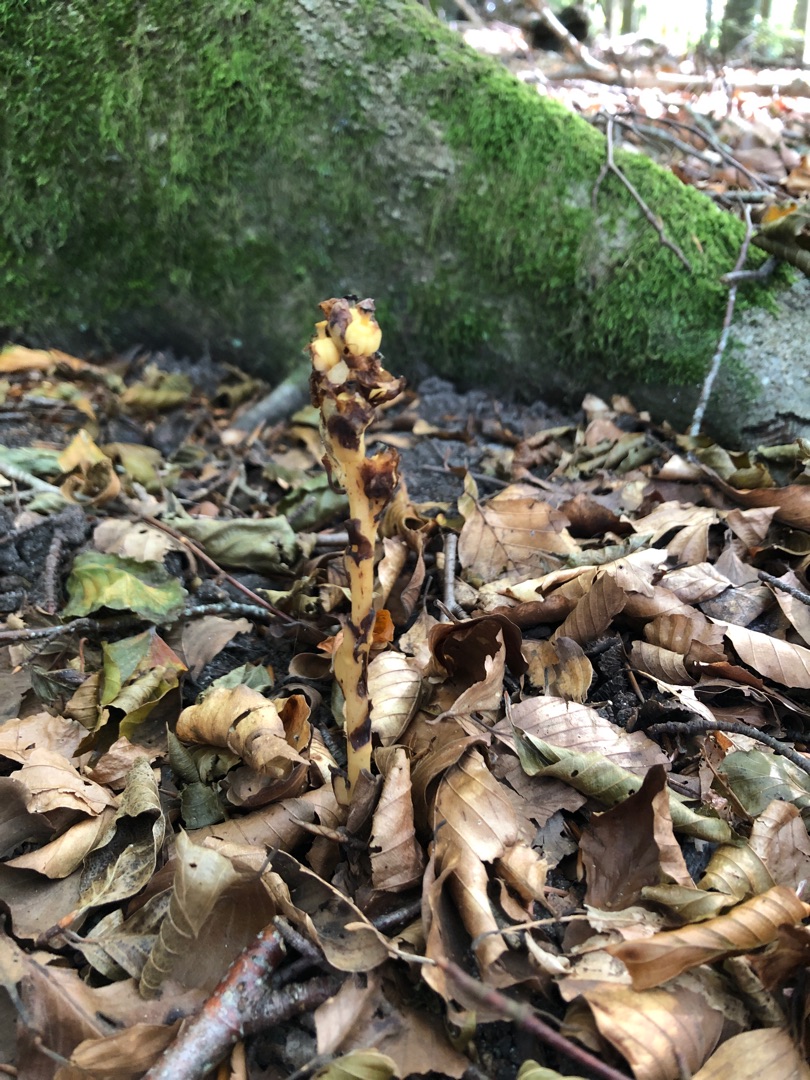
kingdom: Plantae
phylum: Tracheophyta
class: Magnoliopsida
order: Ericales
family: Ericaceae
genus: Hypopitys
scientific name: Hypopitys monotropa
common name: Snylterod
